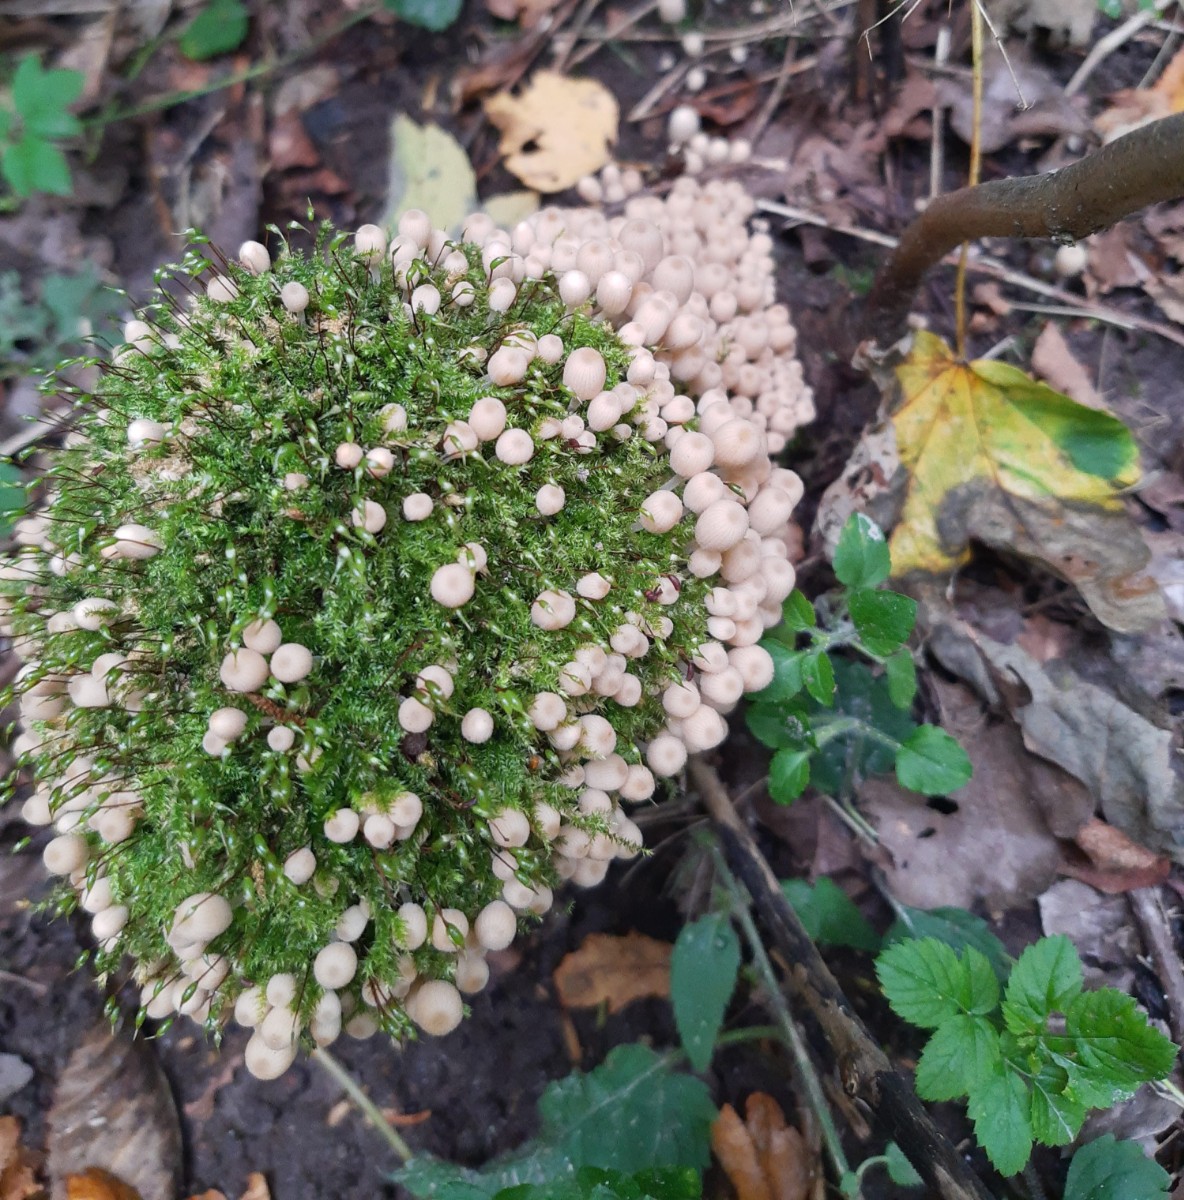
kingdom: Fungi
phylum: Basidiomycota
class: Agaricomycetes
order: Agaricales
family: Psathyrellaceae
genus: Coprinellus
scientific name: Coprinellus disseminatus
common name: bredsået blækhat
